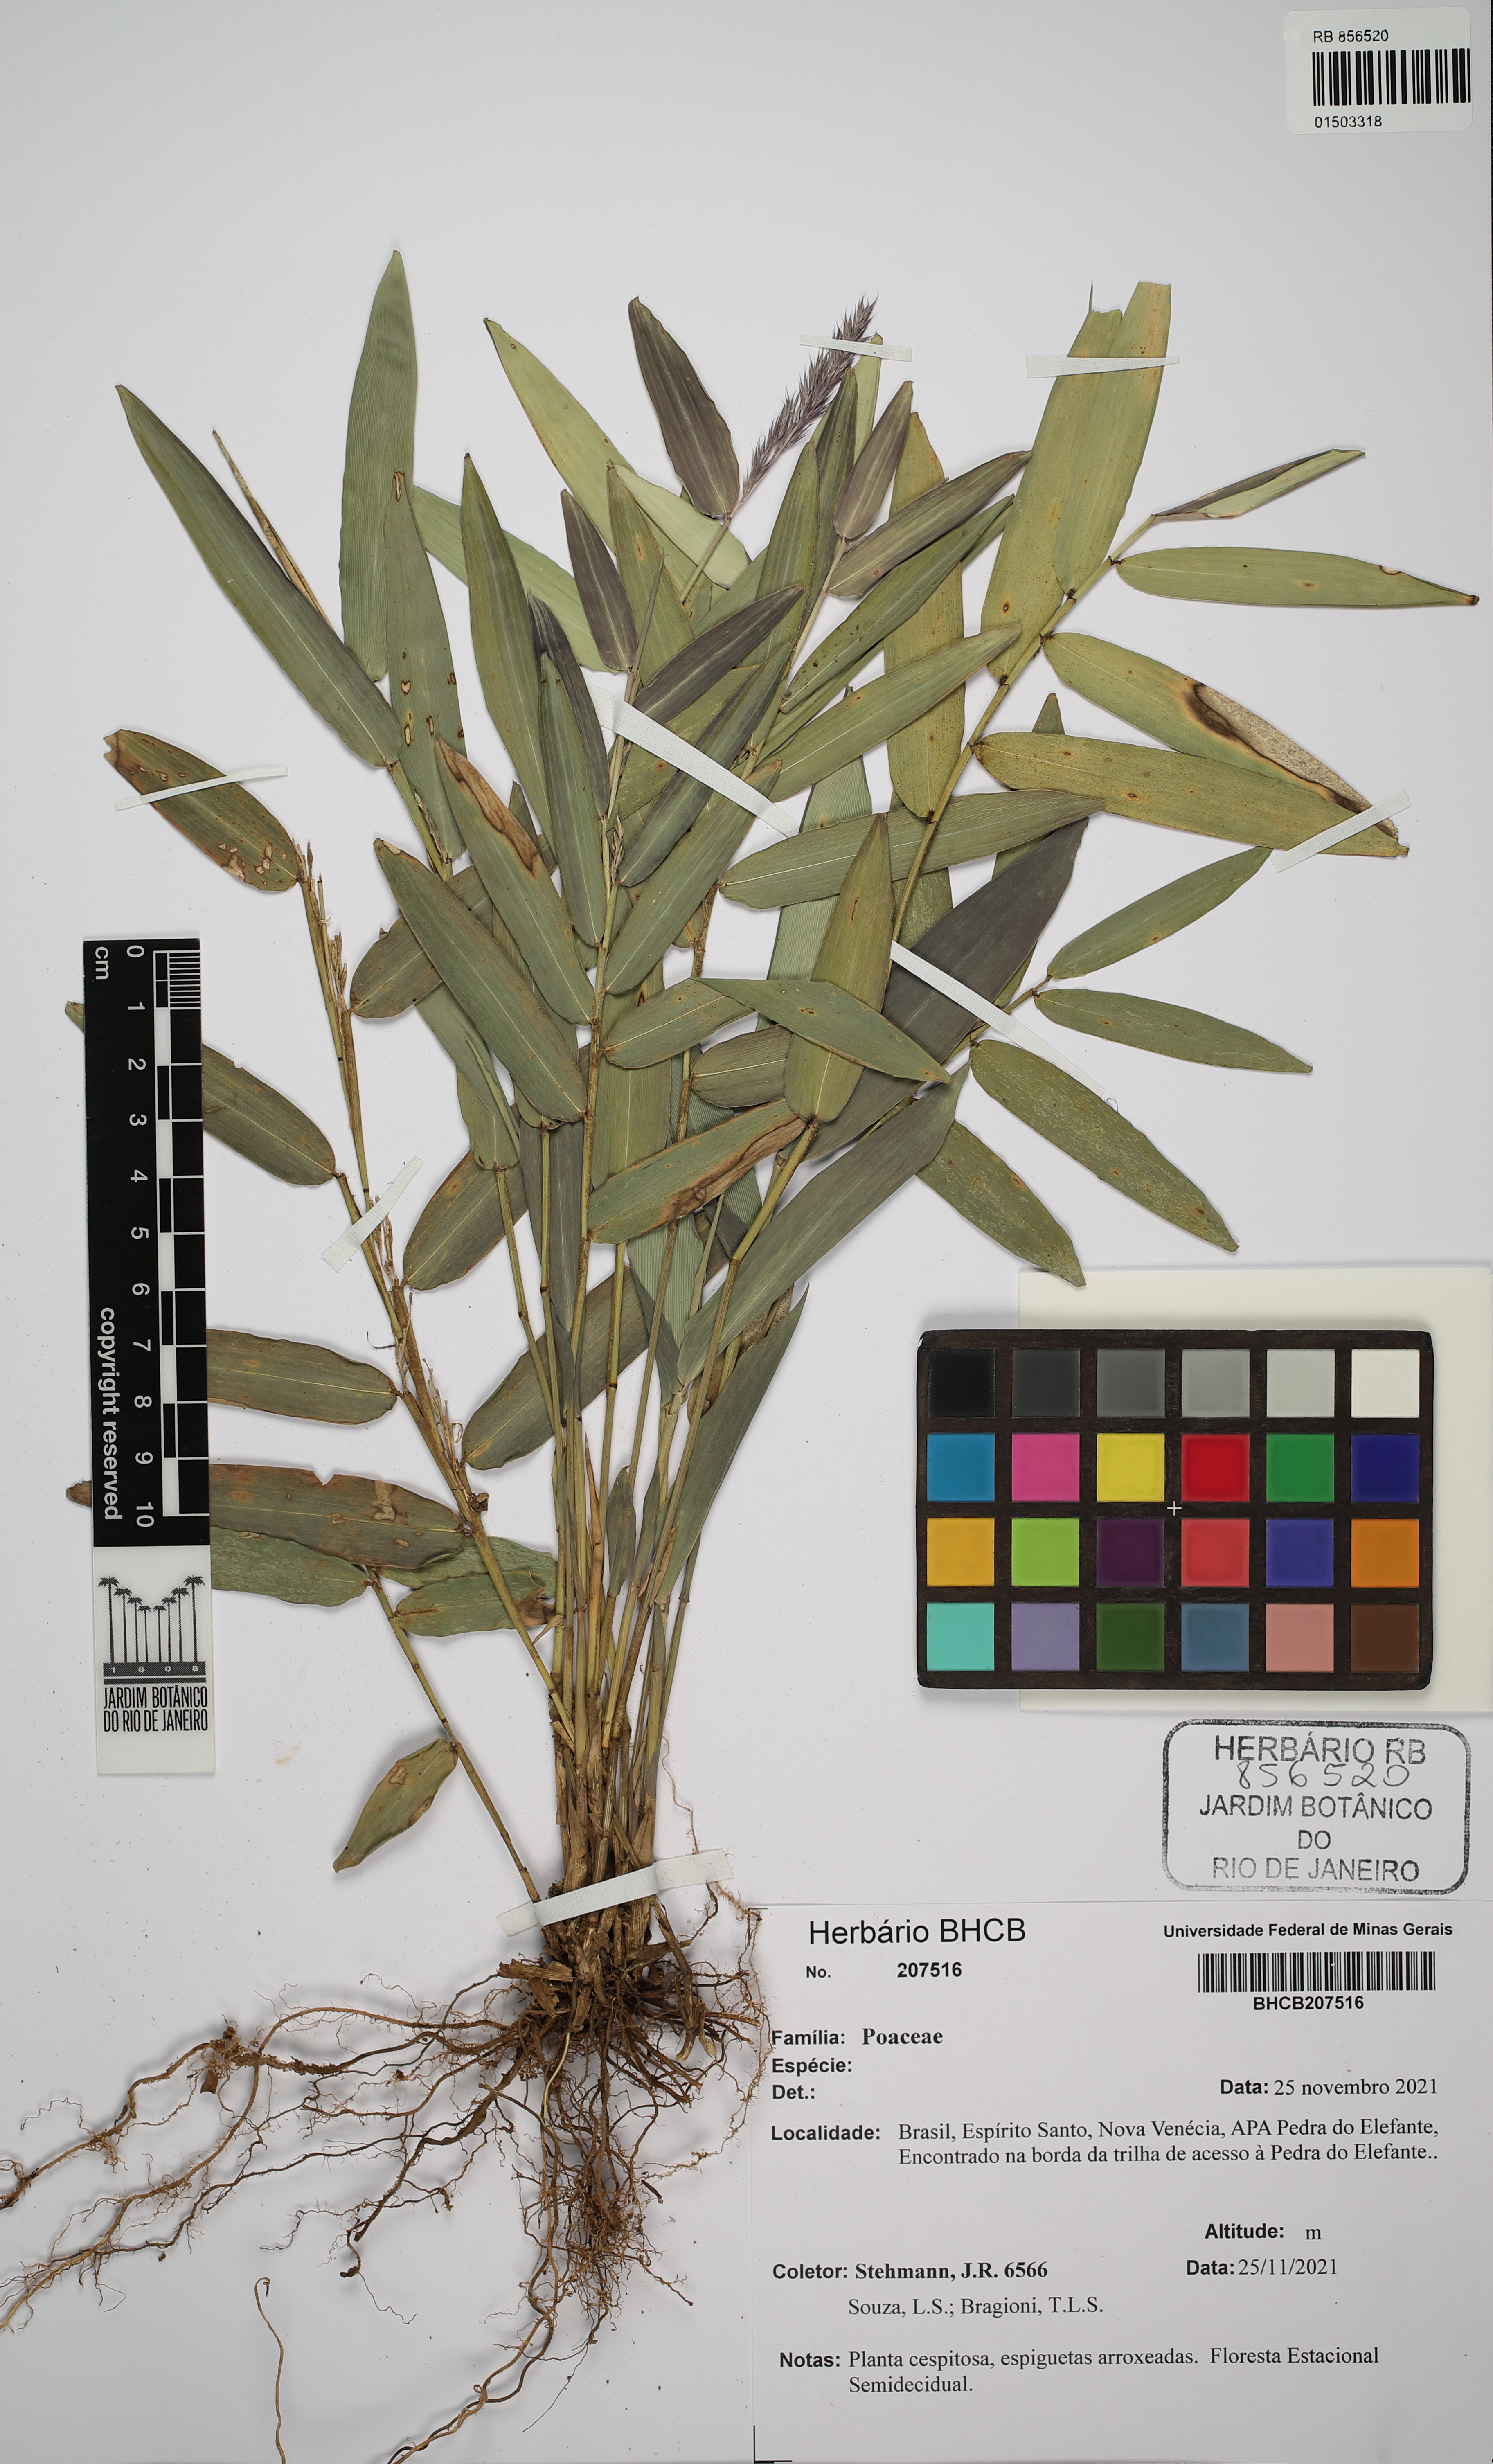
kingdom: Plantae
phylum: Tracheophyta
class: Liliopsida
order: Poales
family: Poaceae
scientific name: Poaceae
